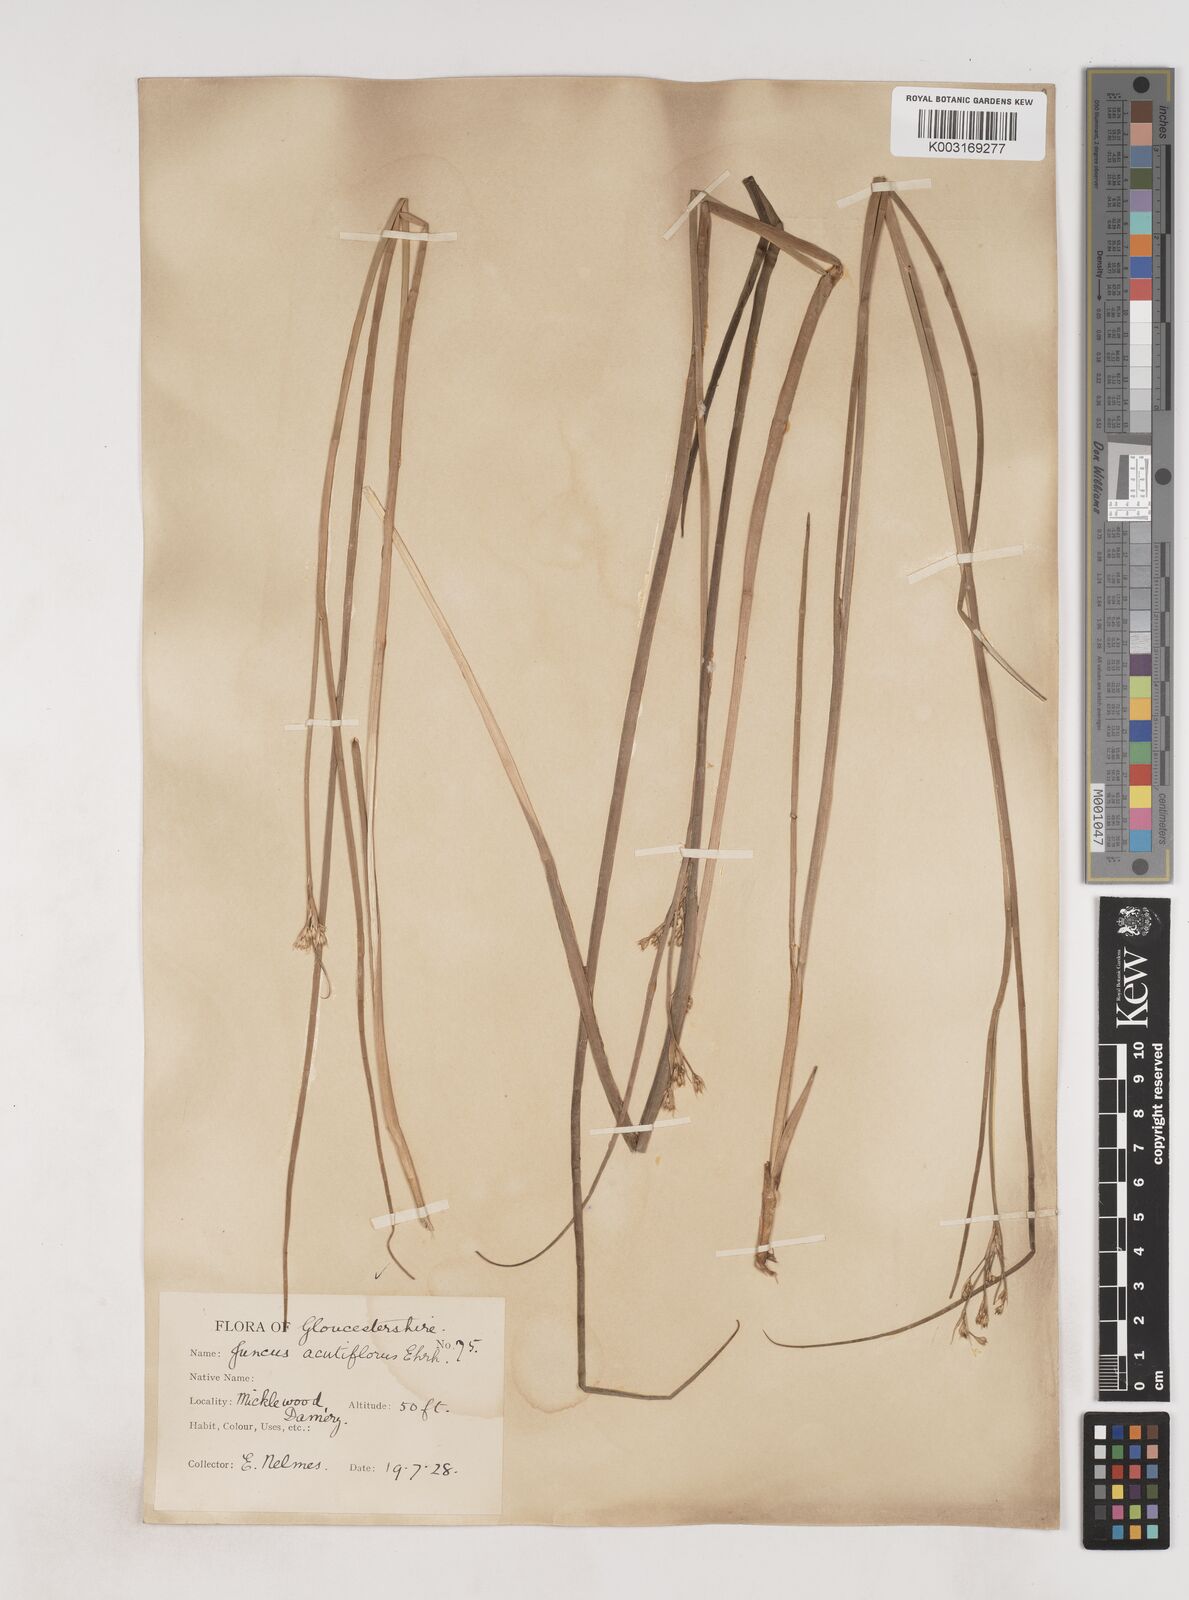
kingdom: Plantae
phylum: Tracheophyta
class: Liliopsida
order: Poales
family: Juncaceae
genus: Juncus
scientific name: Juncus acutiflorus
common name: Sharp-flowered rush
